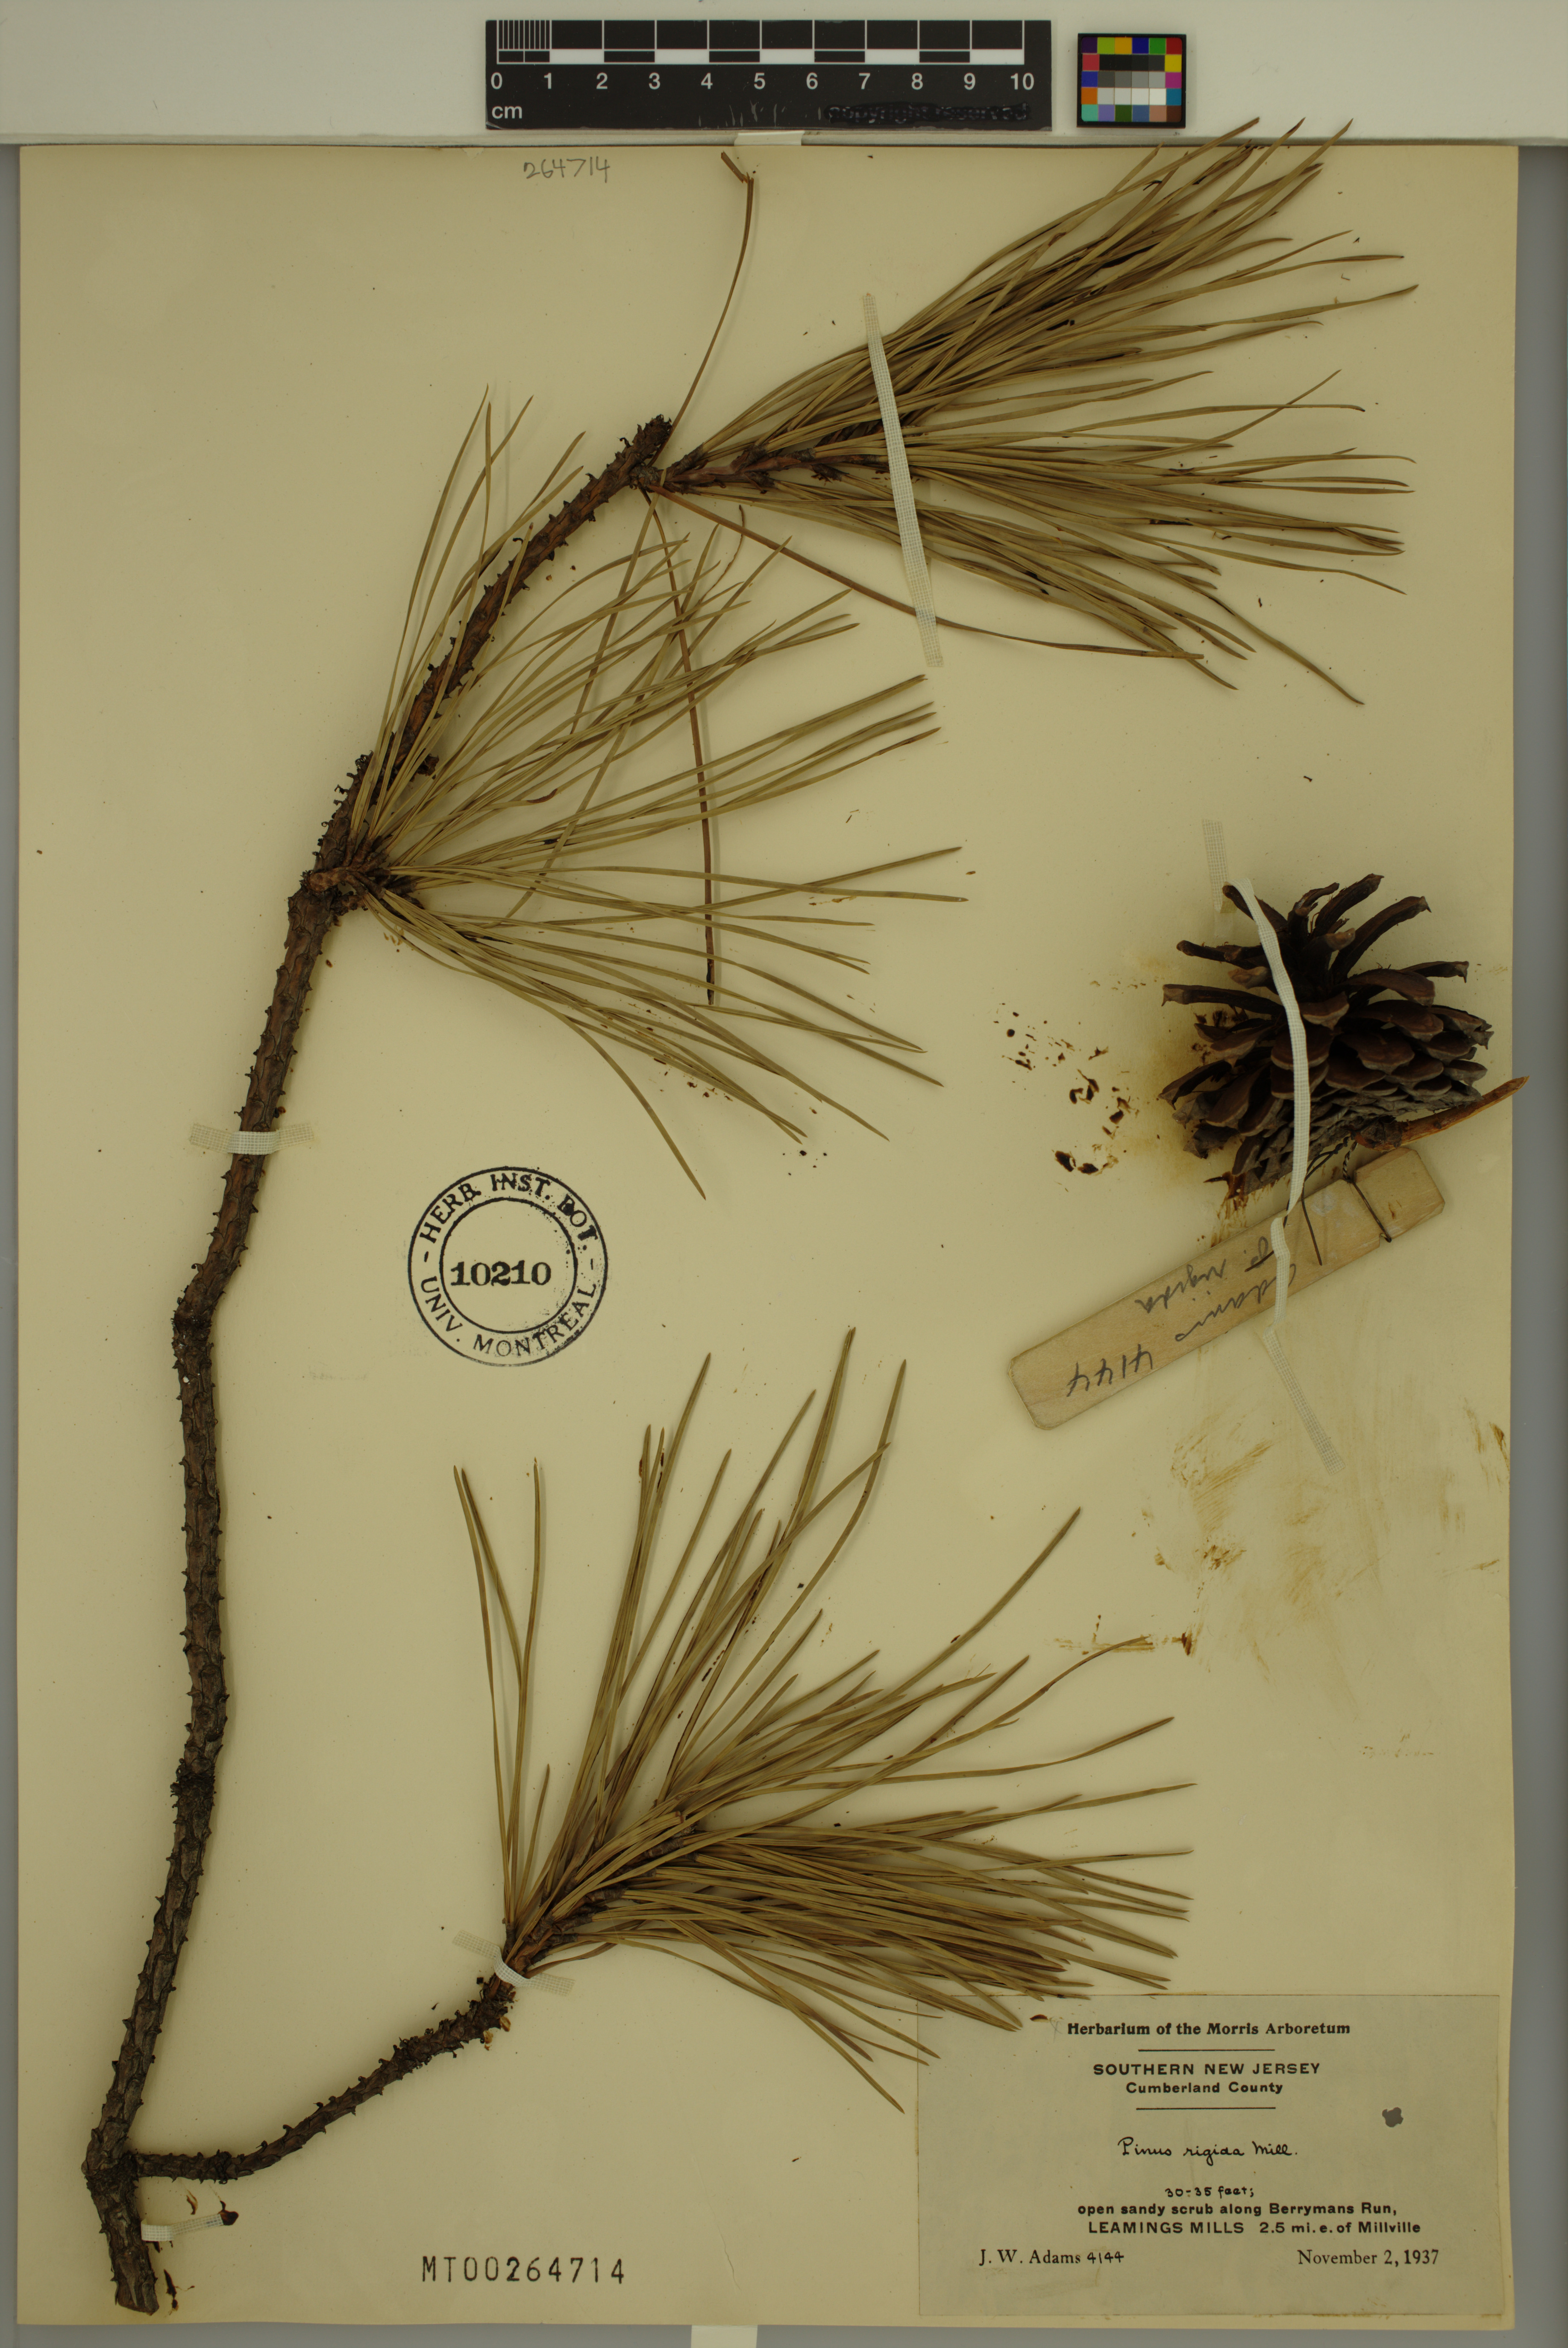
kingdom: Plantae
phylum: Tracheophyta
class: Pinopsida
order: Pinales
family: Pinaceae
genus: Pinus
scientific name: Pinus rigida
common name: Pitch pine
